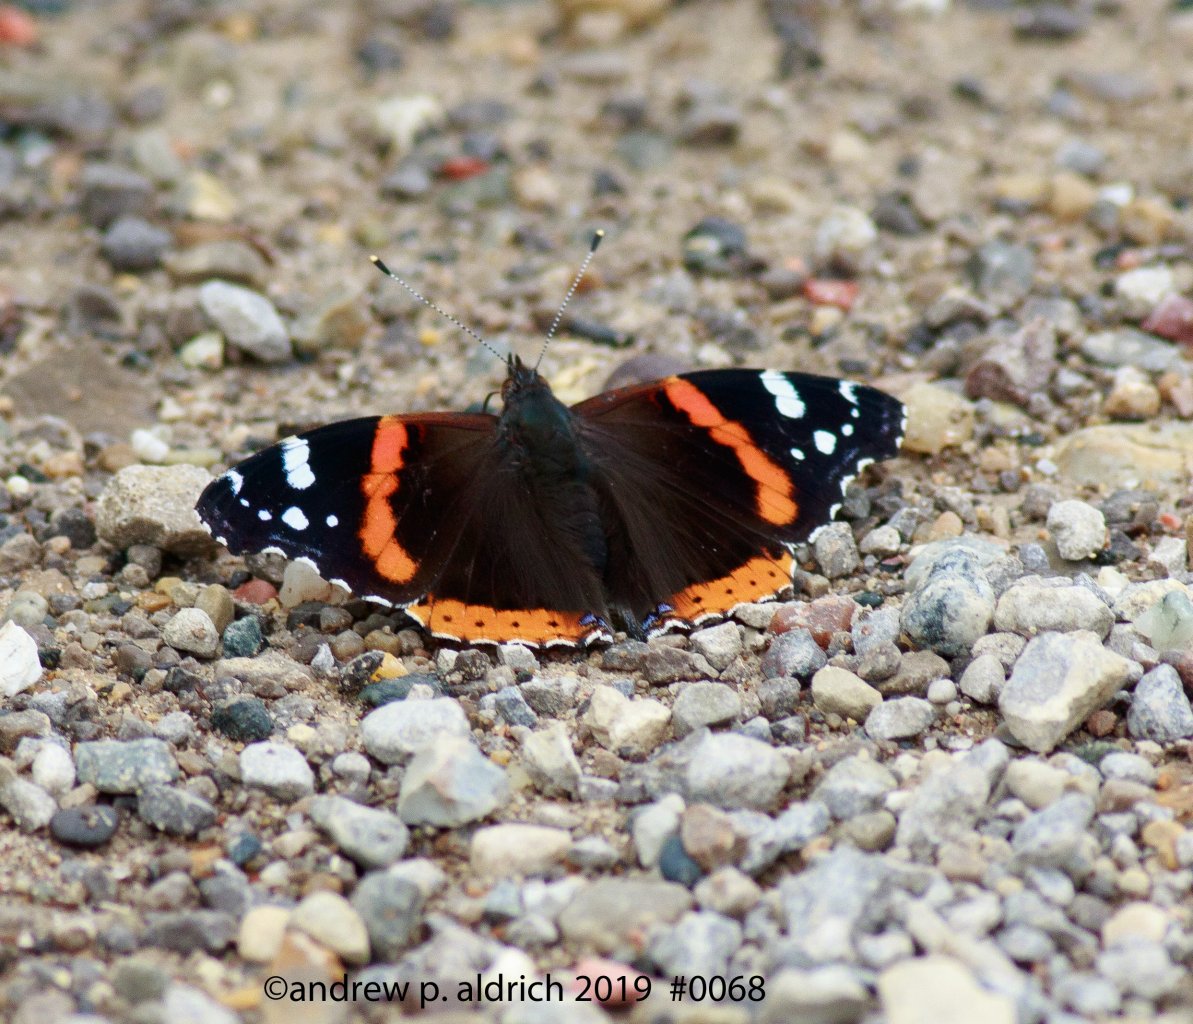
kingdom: Animalia
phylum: Arthropoda
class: Insecta
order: Lepidoptera
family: Nymphalidae
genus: Vanessa
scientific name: Vanessa atalanta
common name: Red Admiral
